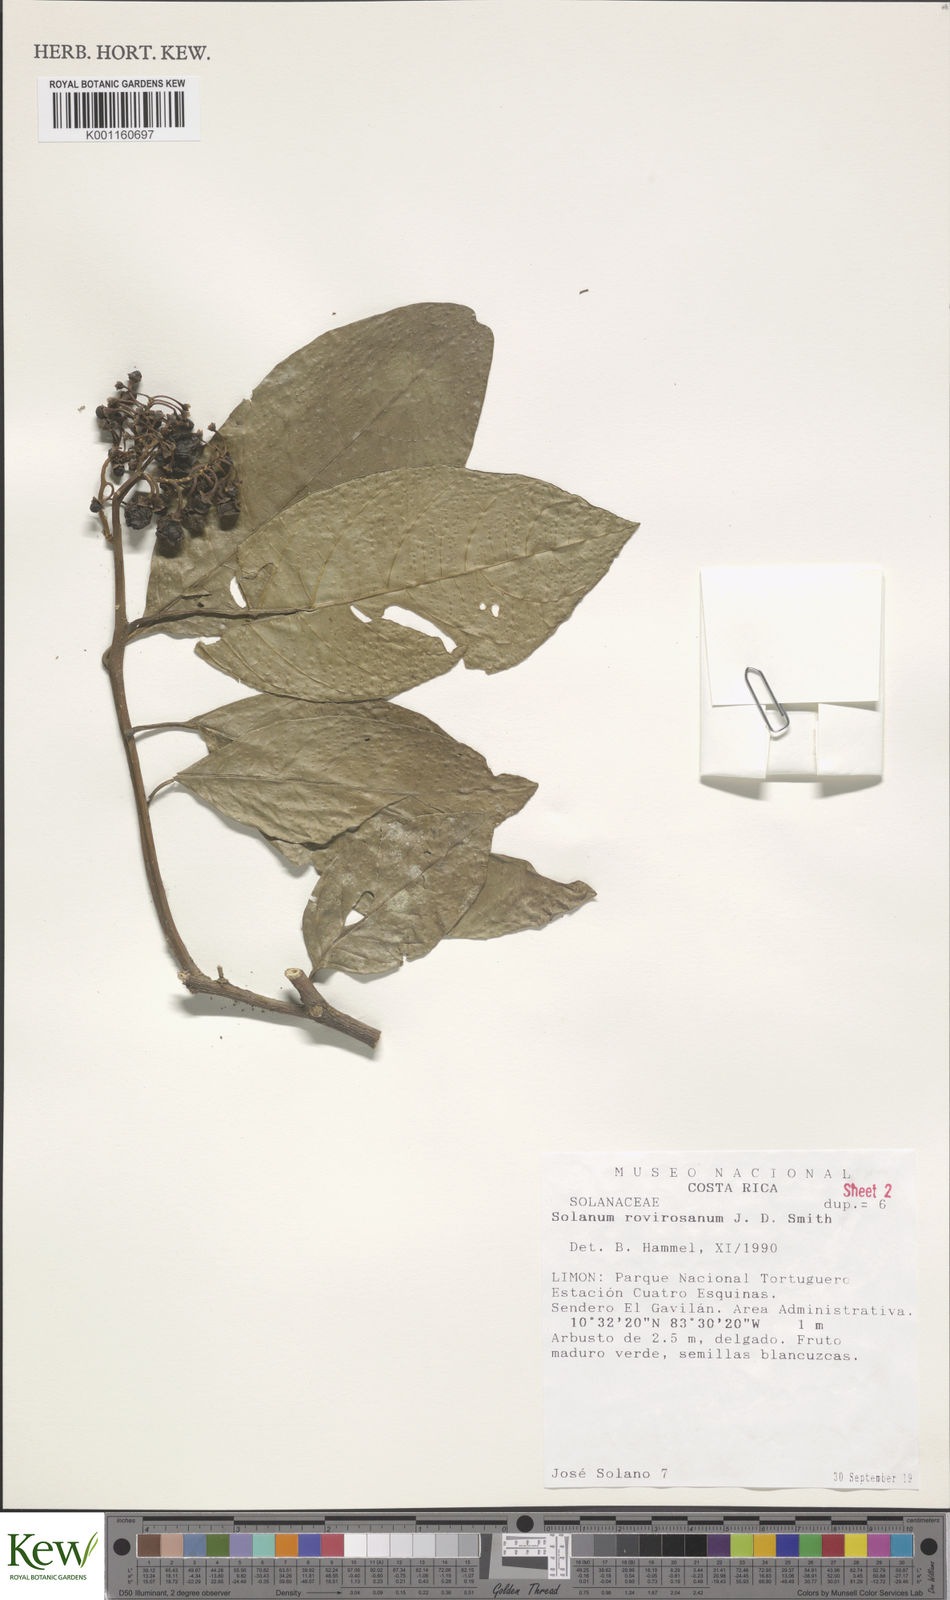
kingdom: Plantae
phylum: Tracheophyta
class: Magnoliopsida
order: Solanales
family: Solanaceae
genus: Solanum
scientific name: Solanum rovirosanum
